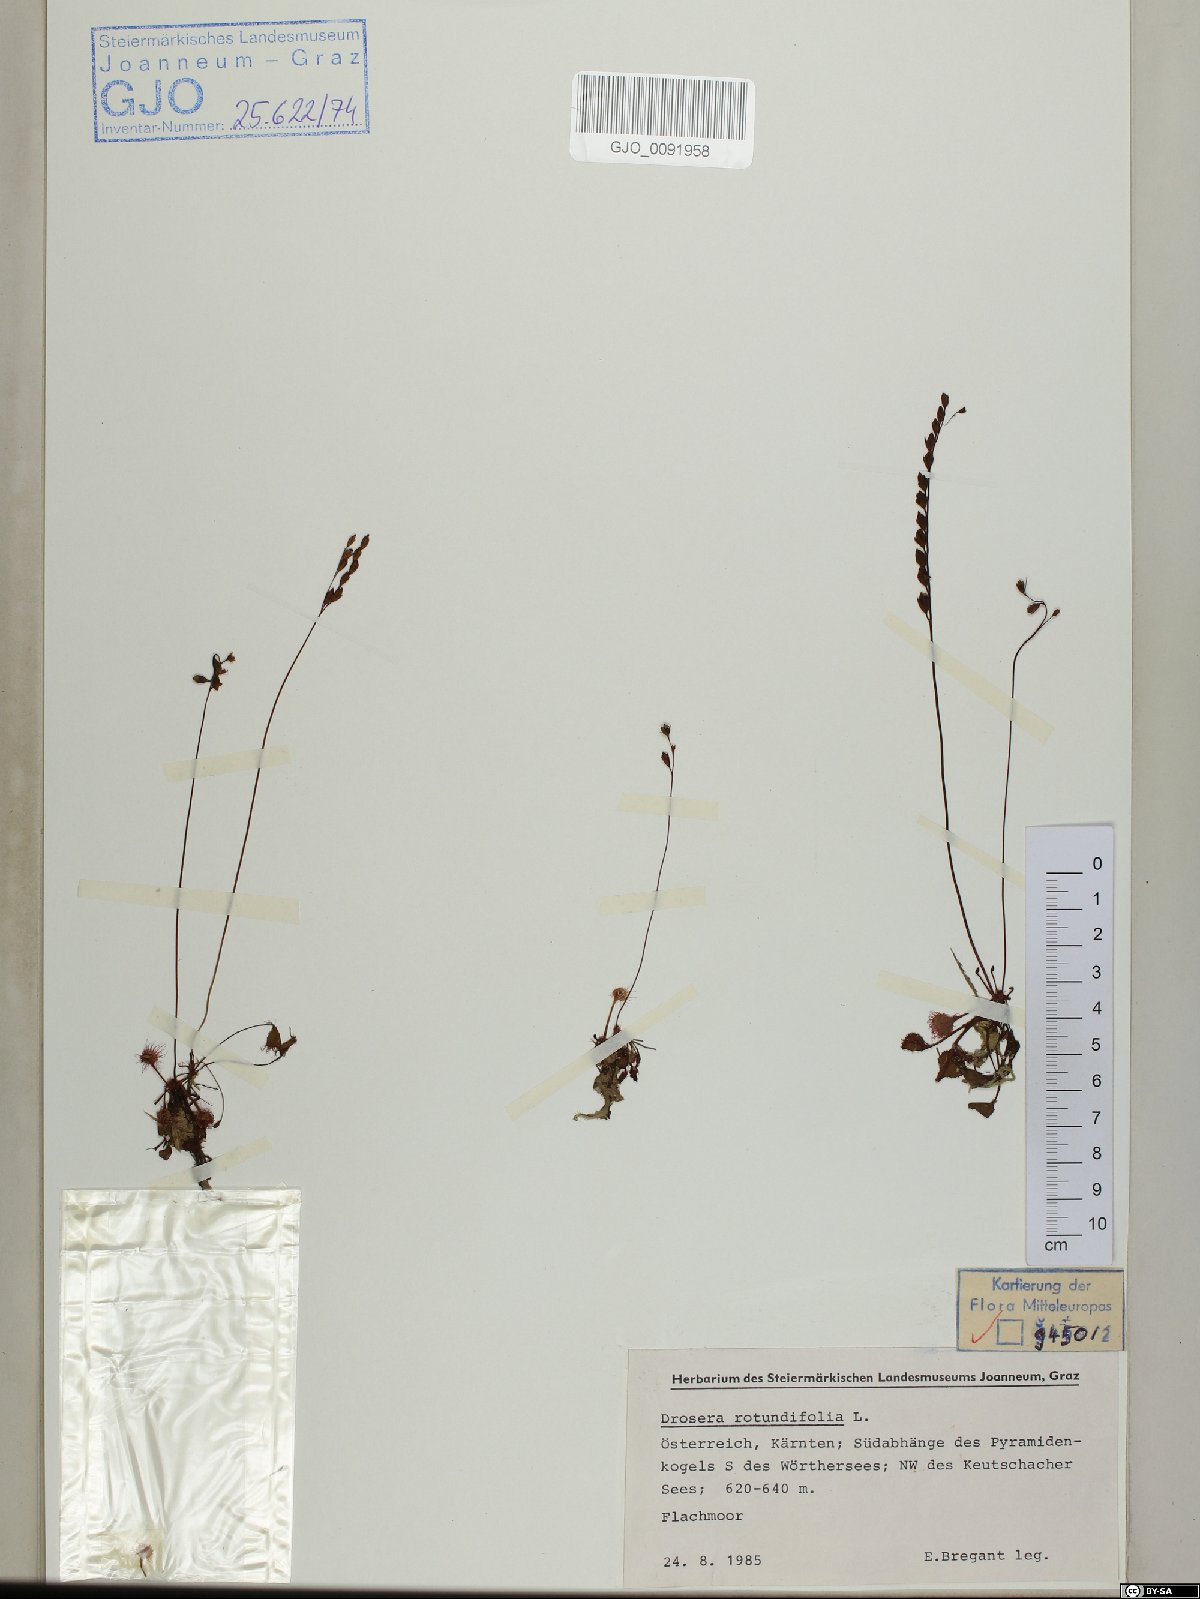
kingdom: Plantae
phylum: Tracheophyta
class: Magnoliopsida
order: Caryophyllales
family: Droseraceae
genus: Drosera
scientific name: Drosera rotundifolia
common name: Round-leaved sundew
